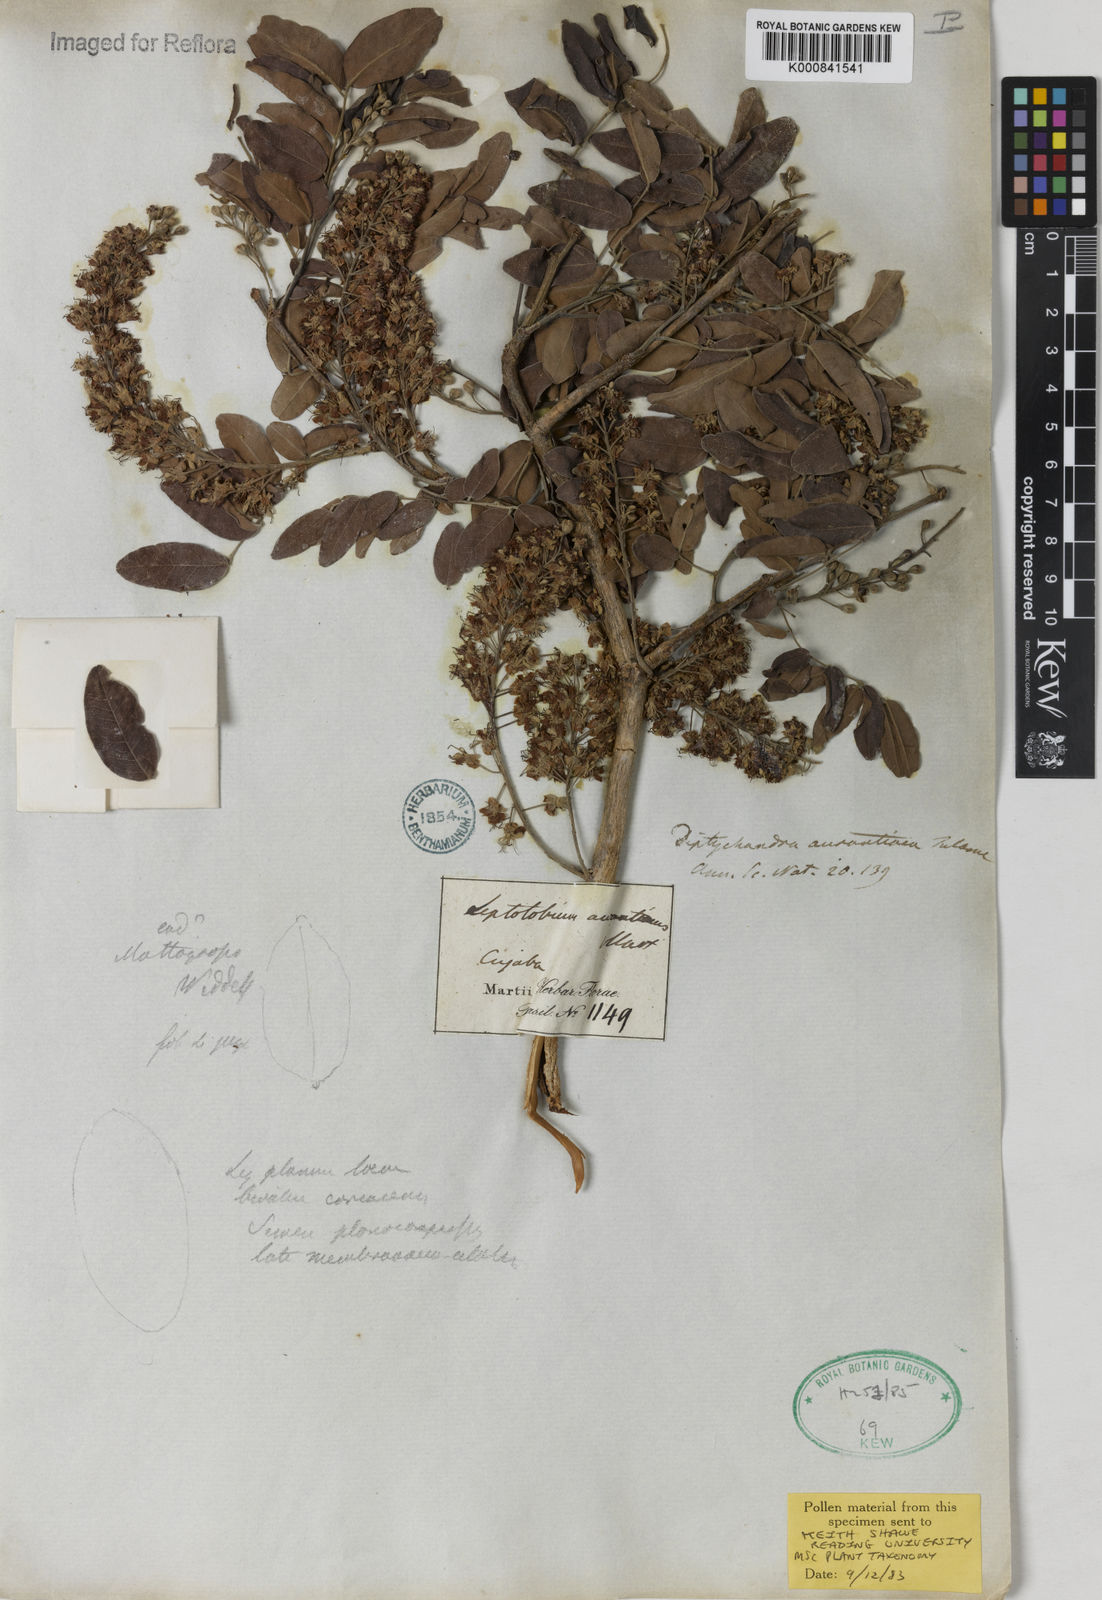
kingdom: Plantae
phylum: Tracheophyta
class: Magnoliopsida
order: Fabales
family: Fabaceae
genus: Diptychandra
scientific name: Diptychandra aurantiaca
